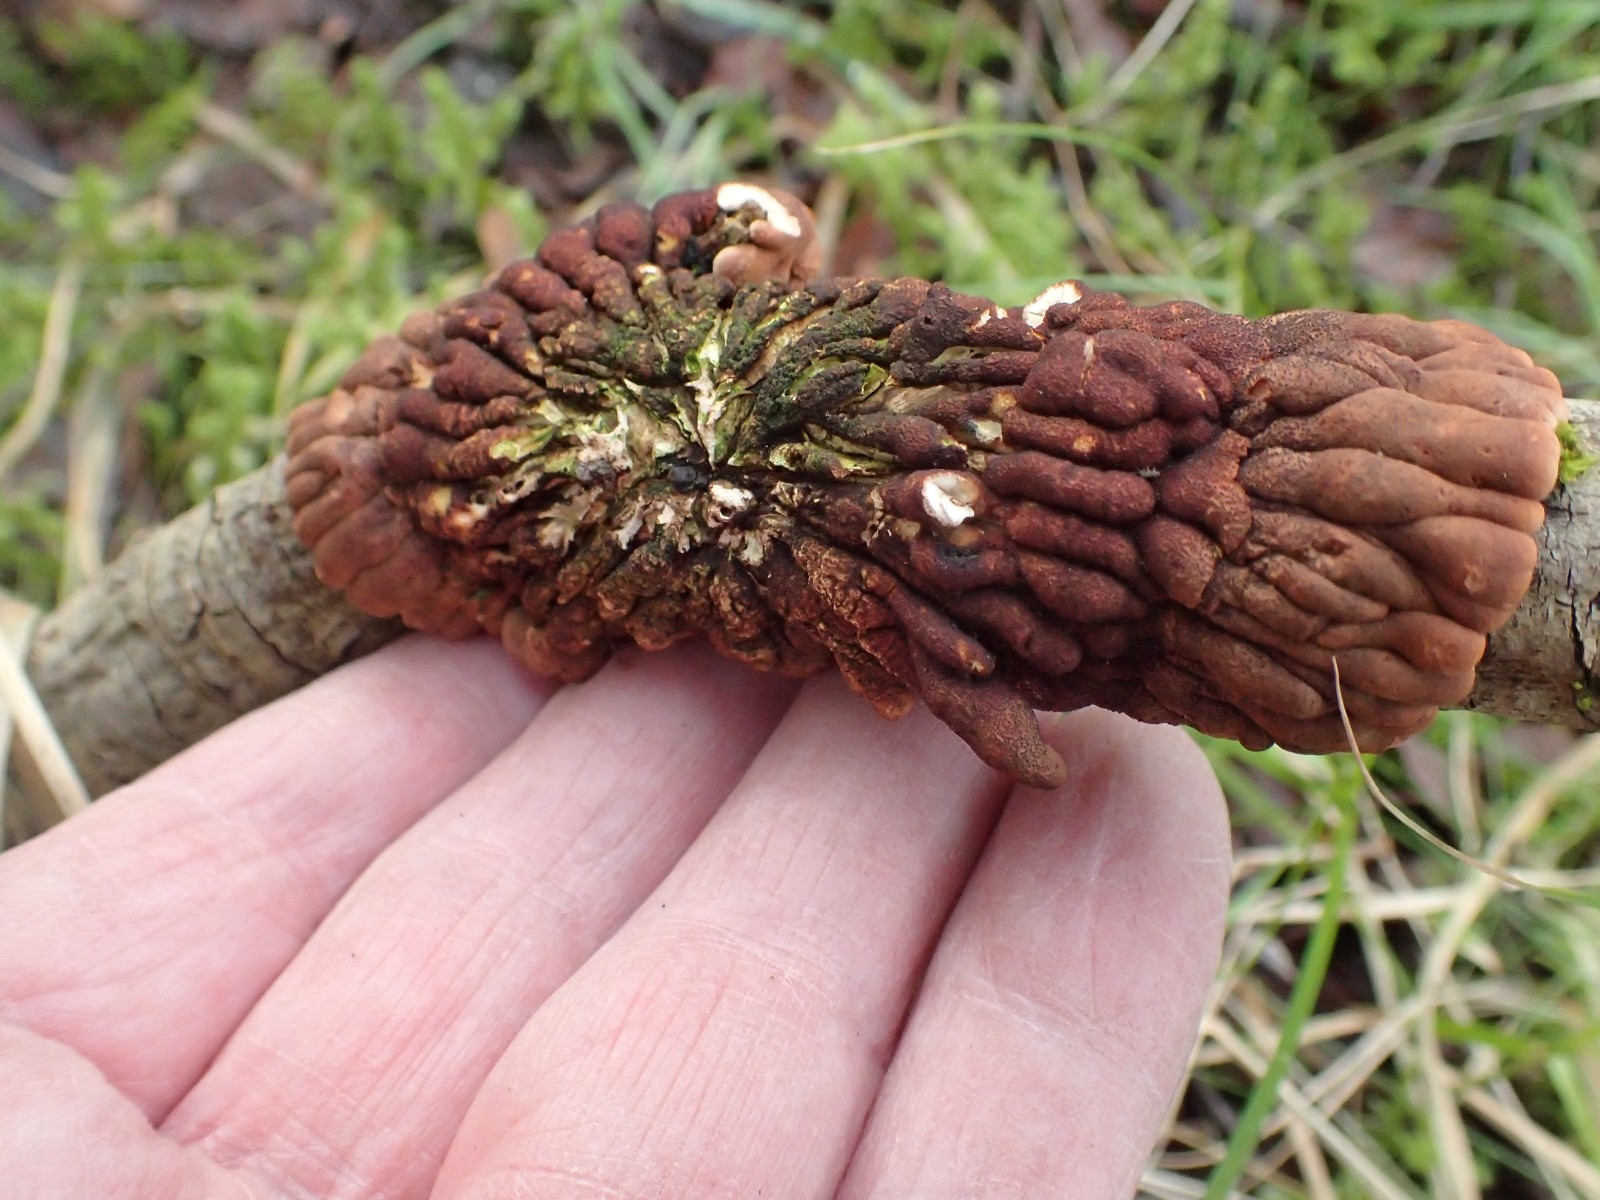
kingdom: Fungi
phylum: Ascomycota
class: Sordariomycetes
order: Hypocreales
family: Hypocreaceae
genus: Hypocreopsis
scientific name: Hypocreopsis lichenoides
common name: pilfinger
